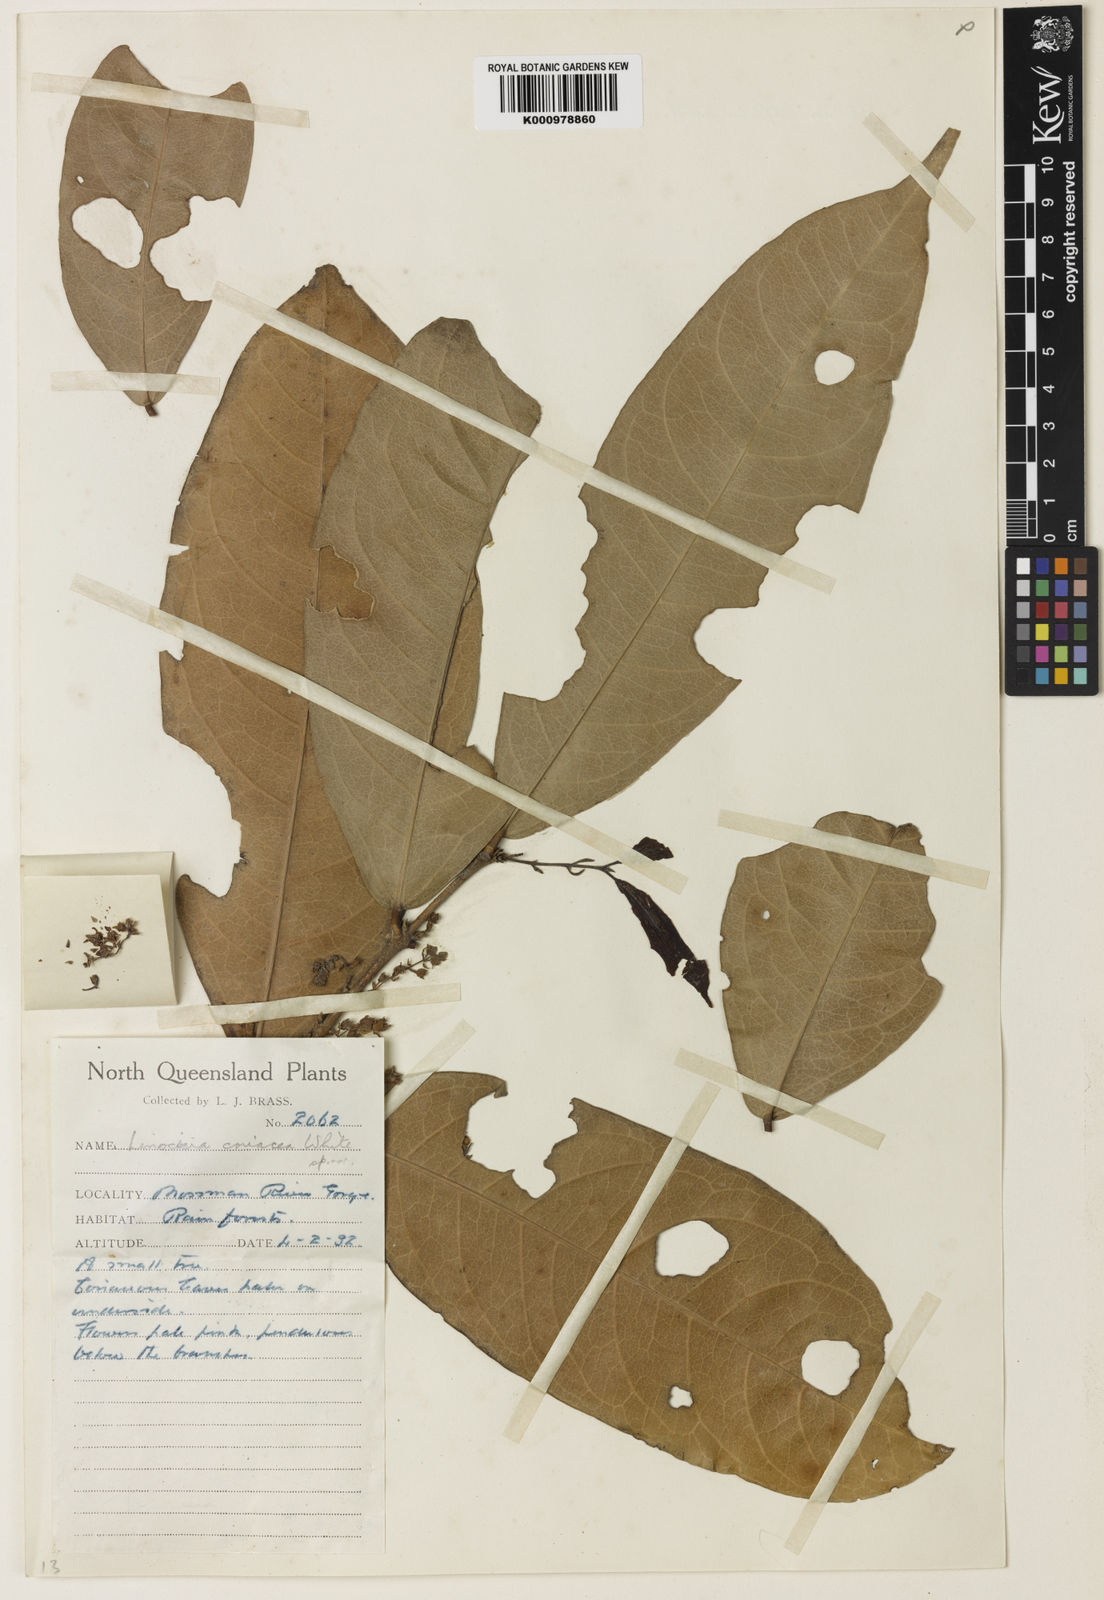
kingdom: Plantae
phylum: Tracheophyta
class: Magnoliopsida
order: Lamiales
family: Oleaceae
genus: Chionanthus
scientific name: Chionanthus sleumeri
